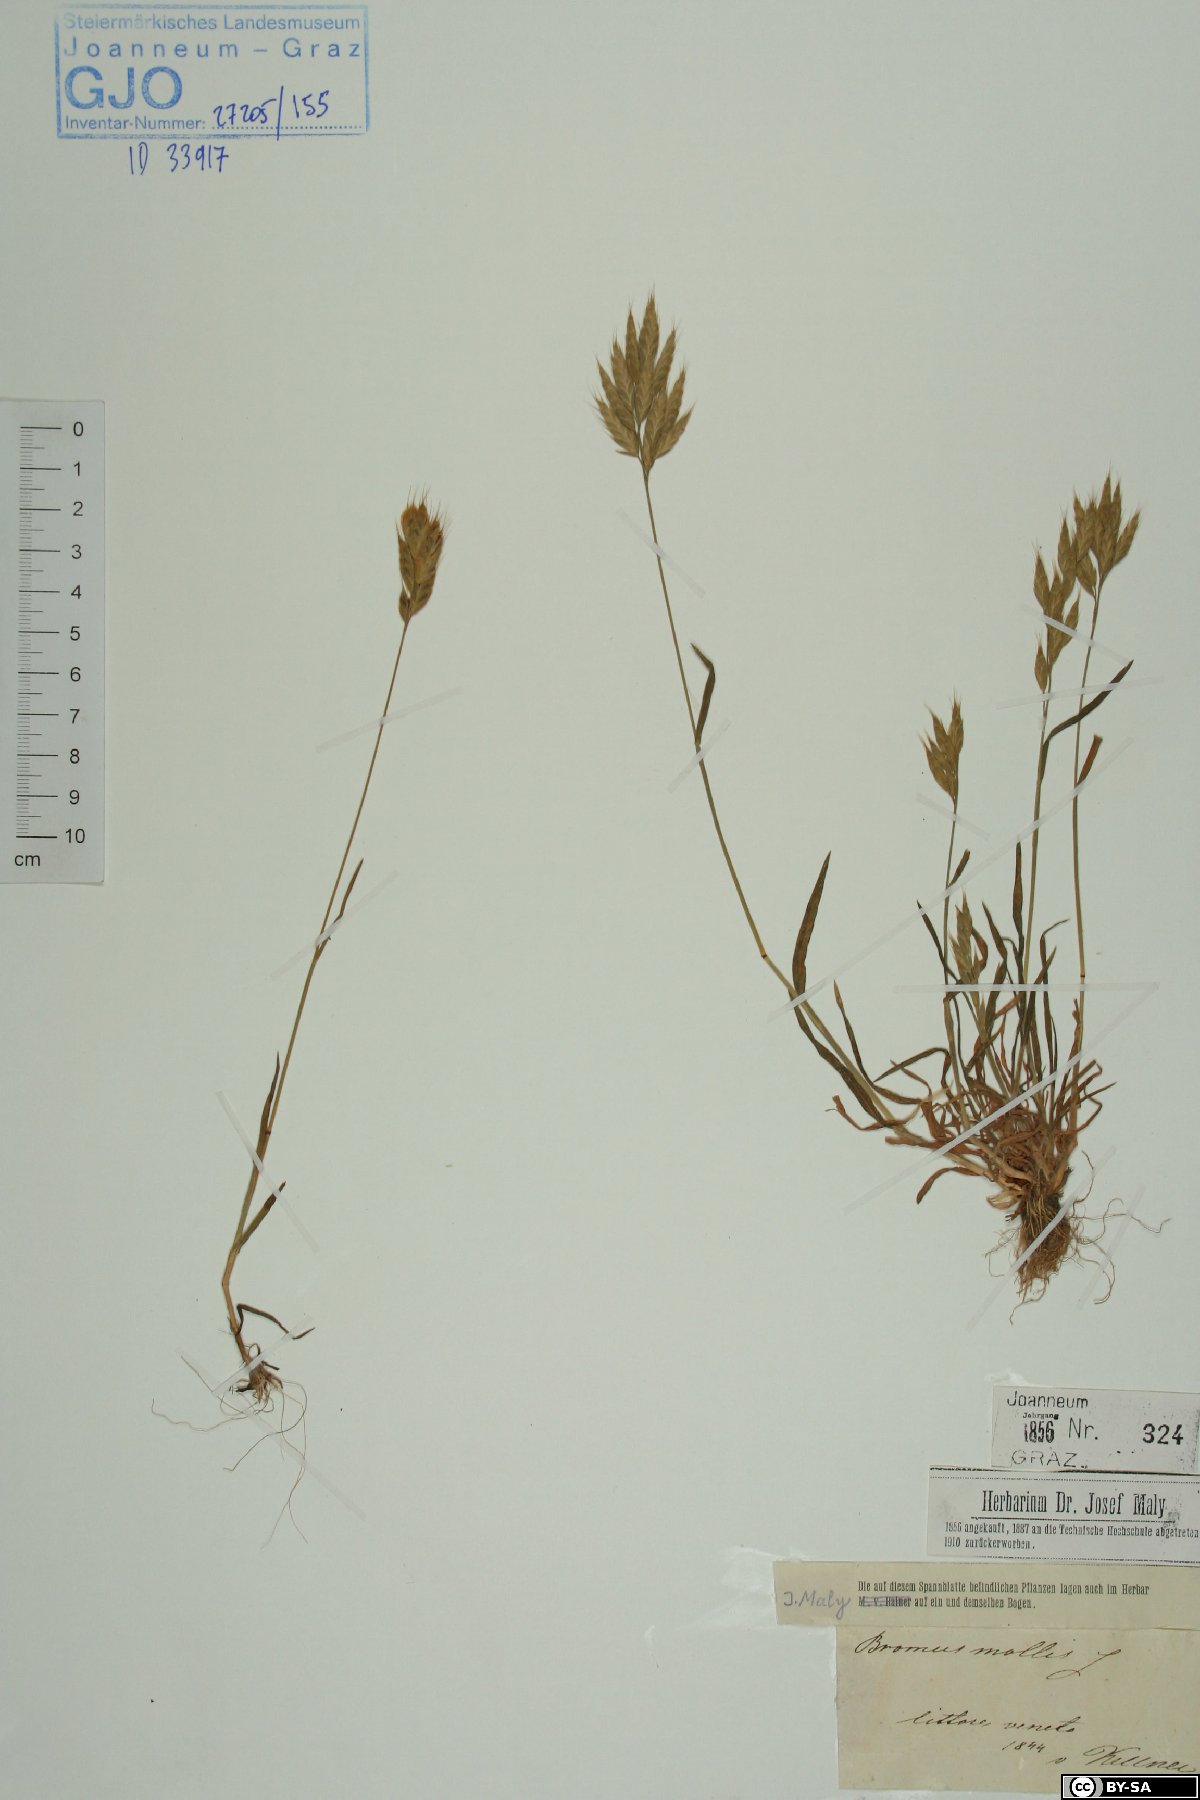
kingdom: Plantae
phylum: Tracheophyta
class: Liliopsida
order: Poales
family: Poaceae
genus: Bromus
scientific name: Bromus hordeaceus
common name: Soft brome
